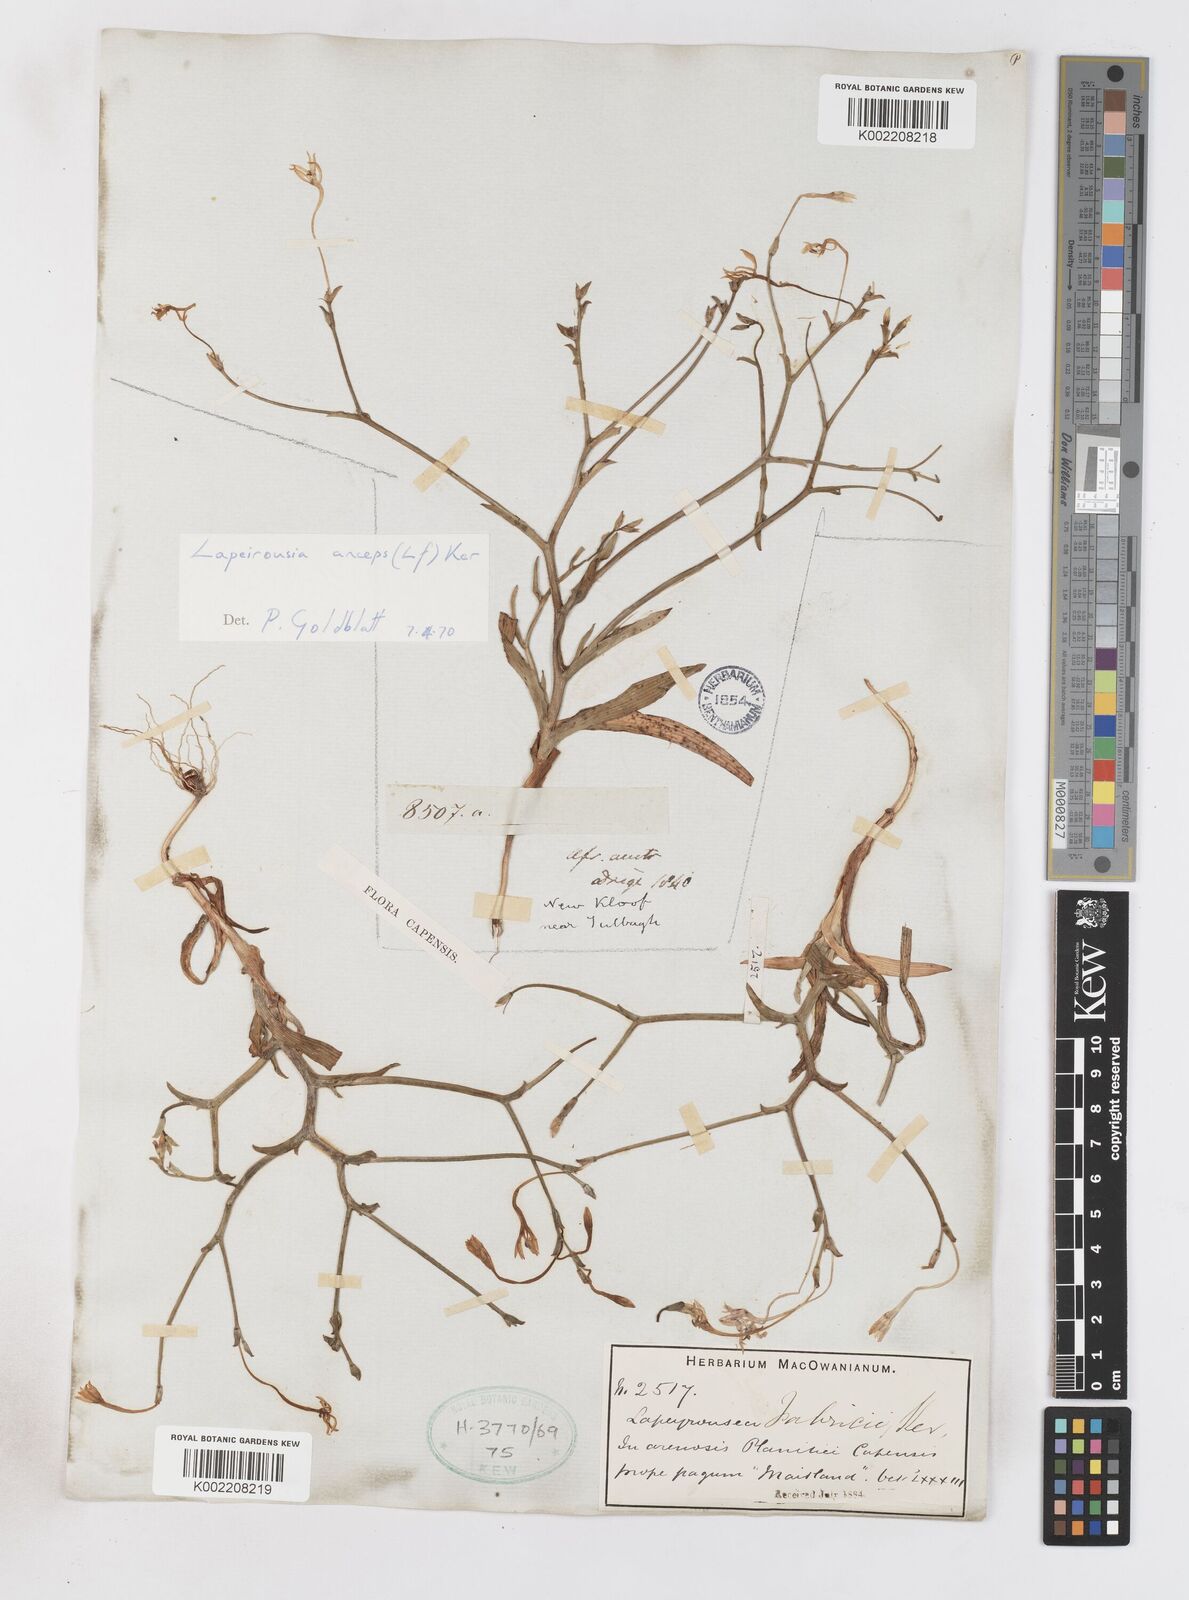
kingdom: Plantae
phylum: Tracheophyta
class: Liliopsida
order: Asparagales
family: Iridaceae
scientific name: Iridaceae
